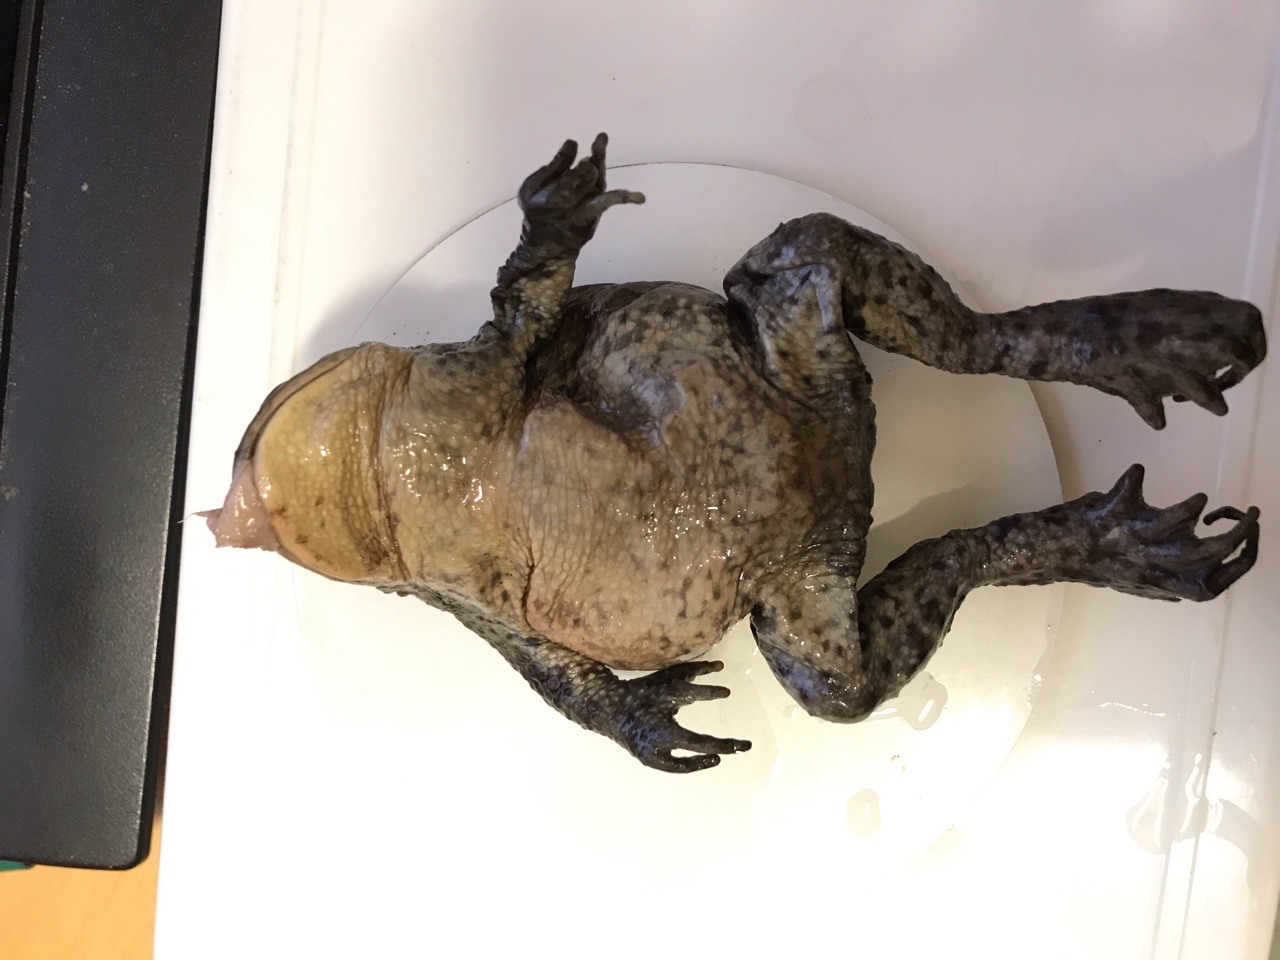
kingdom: Animalia
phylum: Chordata
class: Amphibia
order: Anura
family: Bufonidae
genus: Bufo
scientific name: Bufo bufo
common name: Common toad
